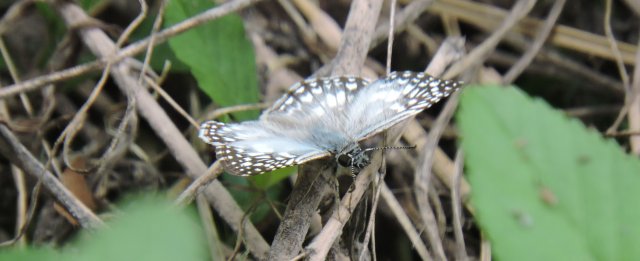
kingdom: Animalia
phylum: Arthropoda
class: Insecta
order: Lepidoptera
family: Hesperiidae
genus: Pyrgus
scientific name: Pyrgus oileus
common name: Tropical Checkered-Skipper
